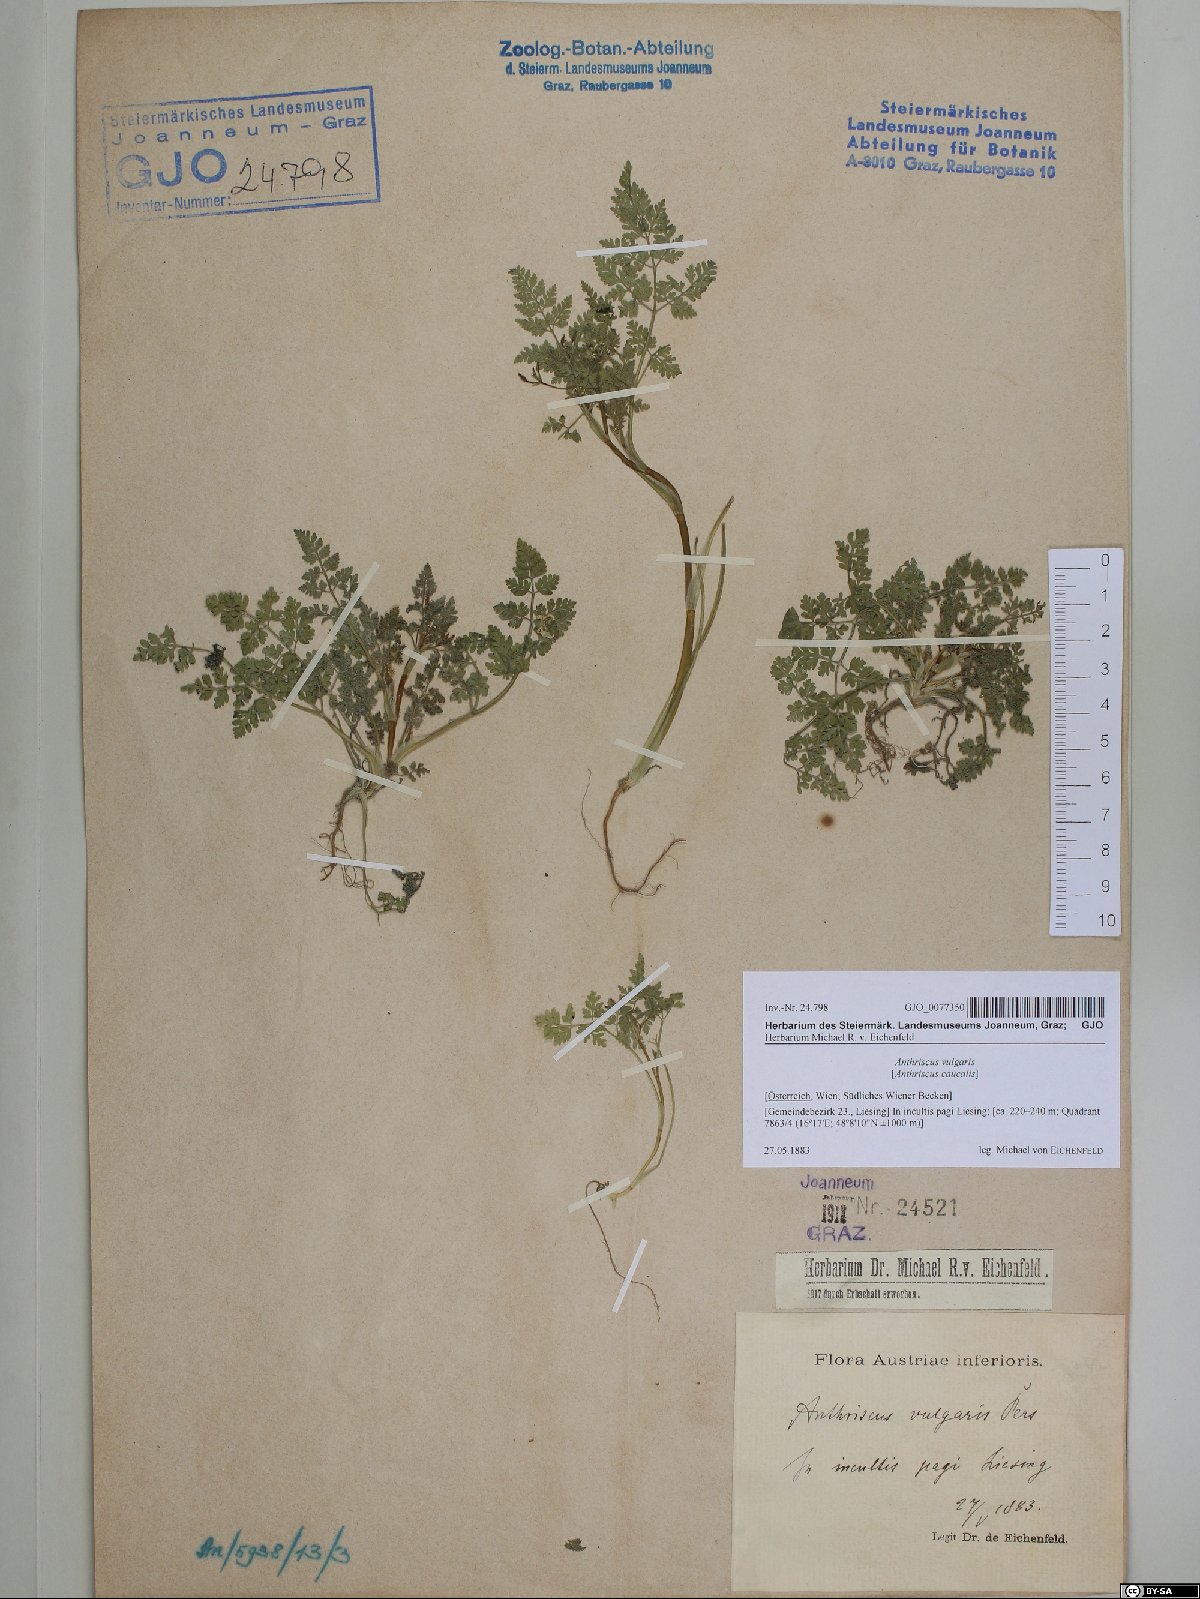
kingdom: Plantae
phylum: Tracheophyta
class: Magnoliopsida
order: Apiales
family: Apiaceae
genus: Anthriscus
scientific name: Anthriscus caucalis
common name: Bur chervil
